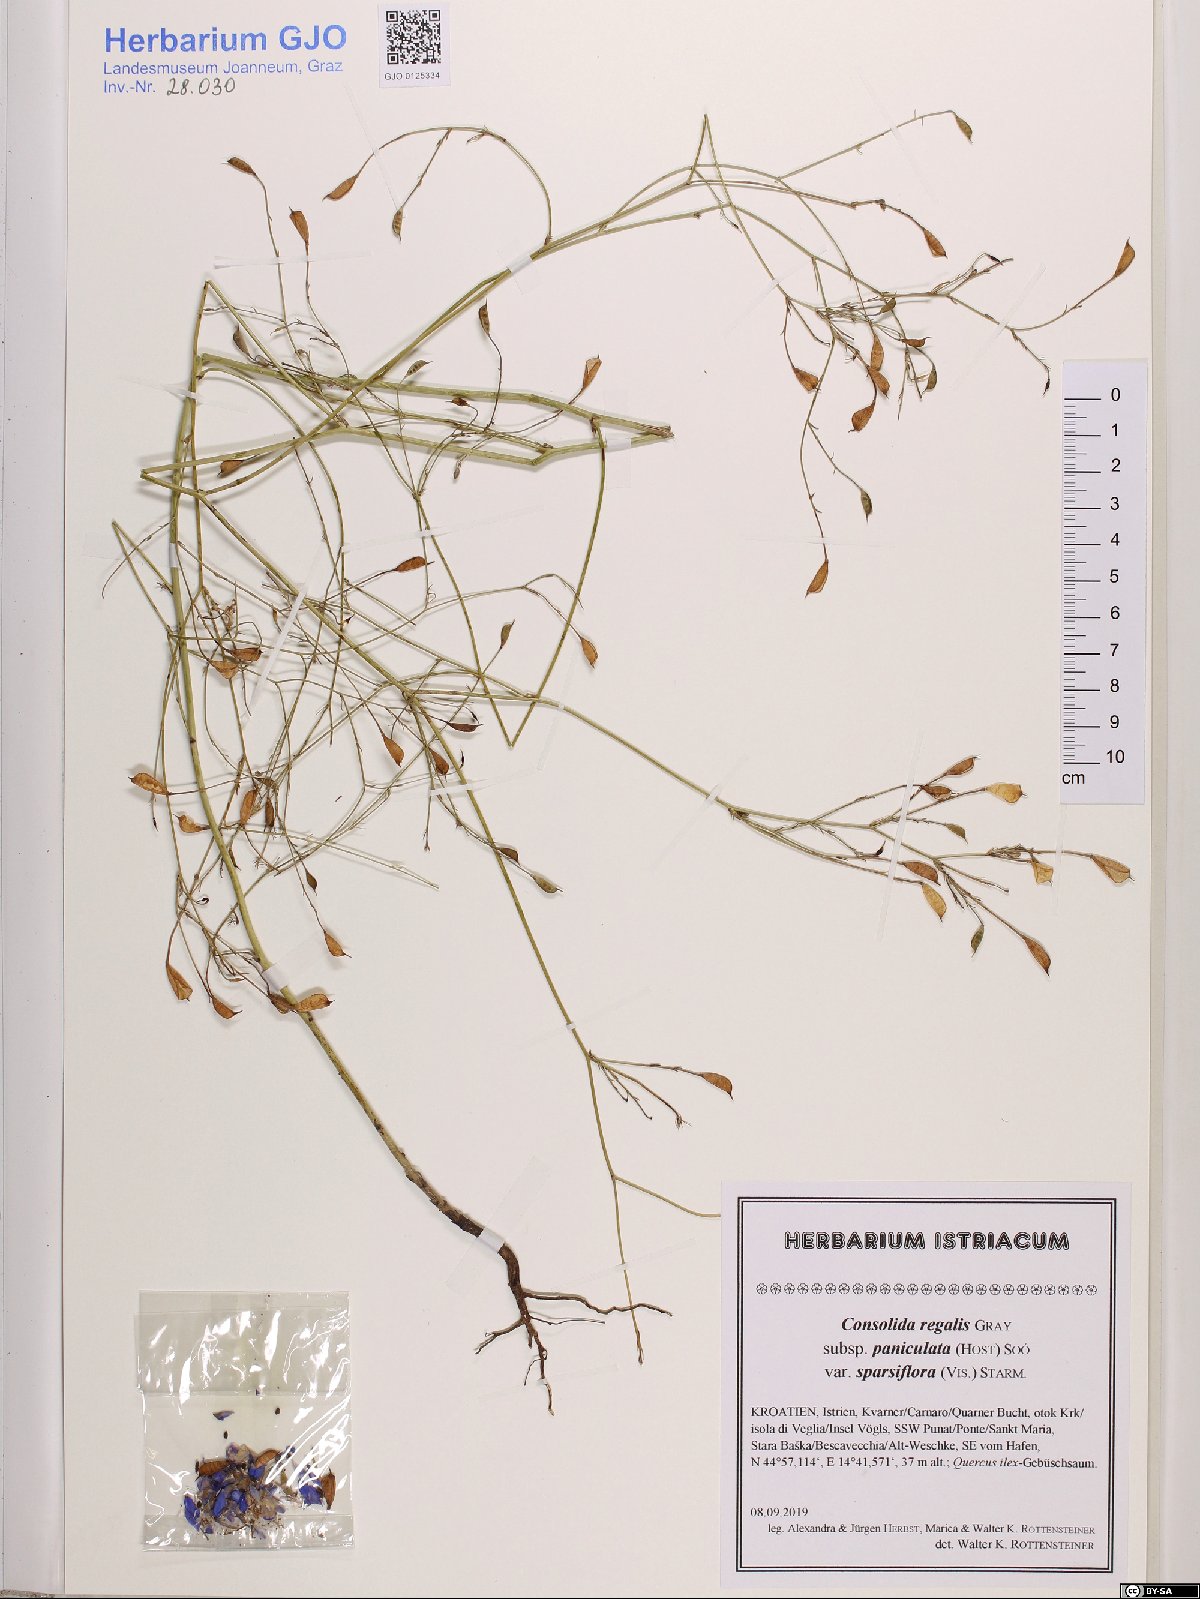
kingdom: Plantae
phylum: Tracheophyta
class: Magnoliopsida
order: Ranunculales
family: Ranunculaceae
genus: Delphinium
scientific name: Delphinium consolida
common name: Branching larkspur
